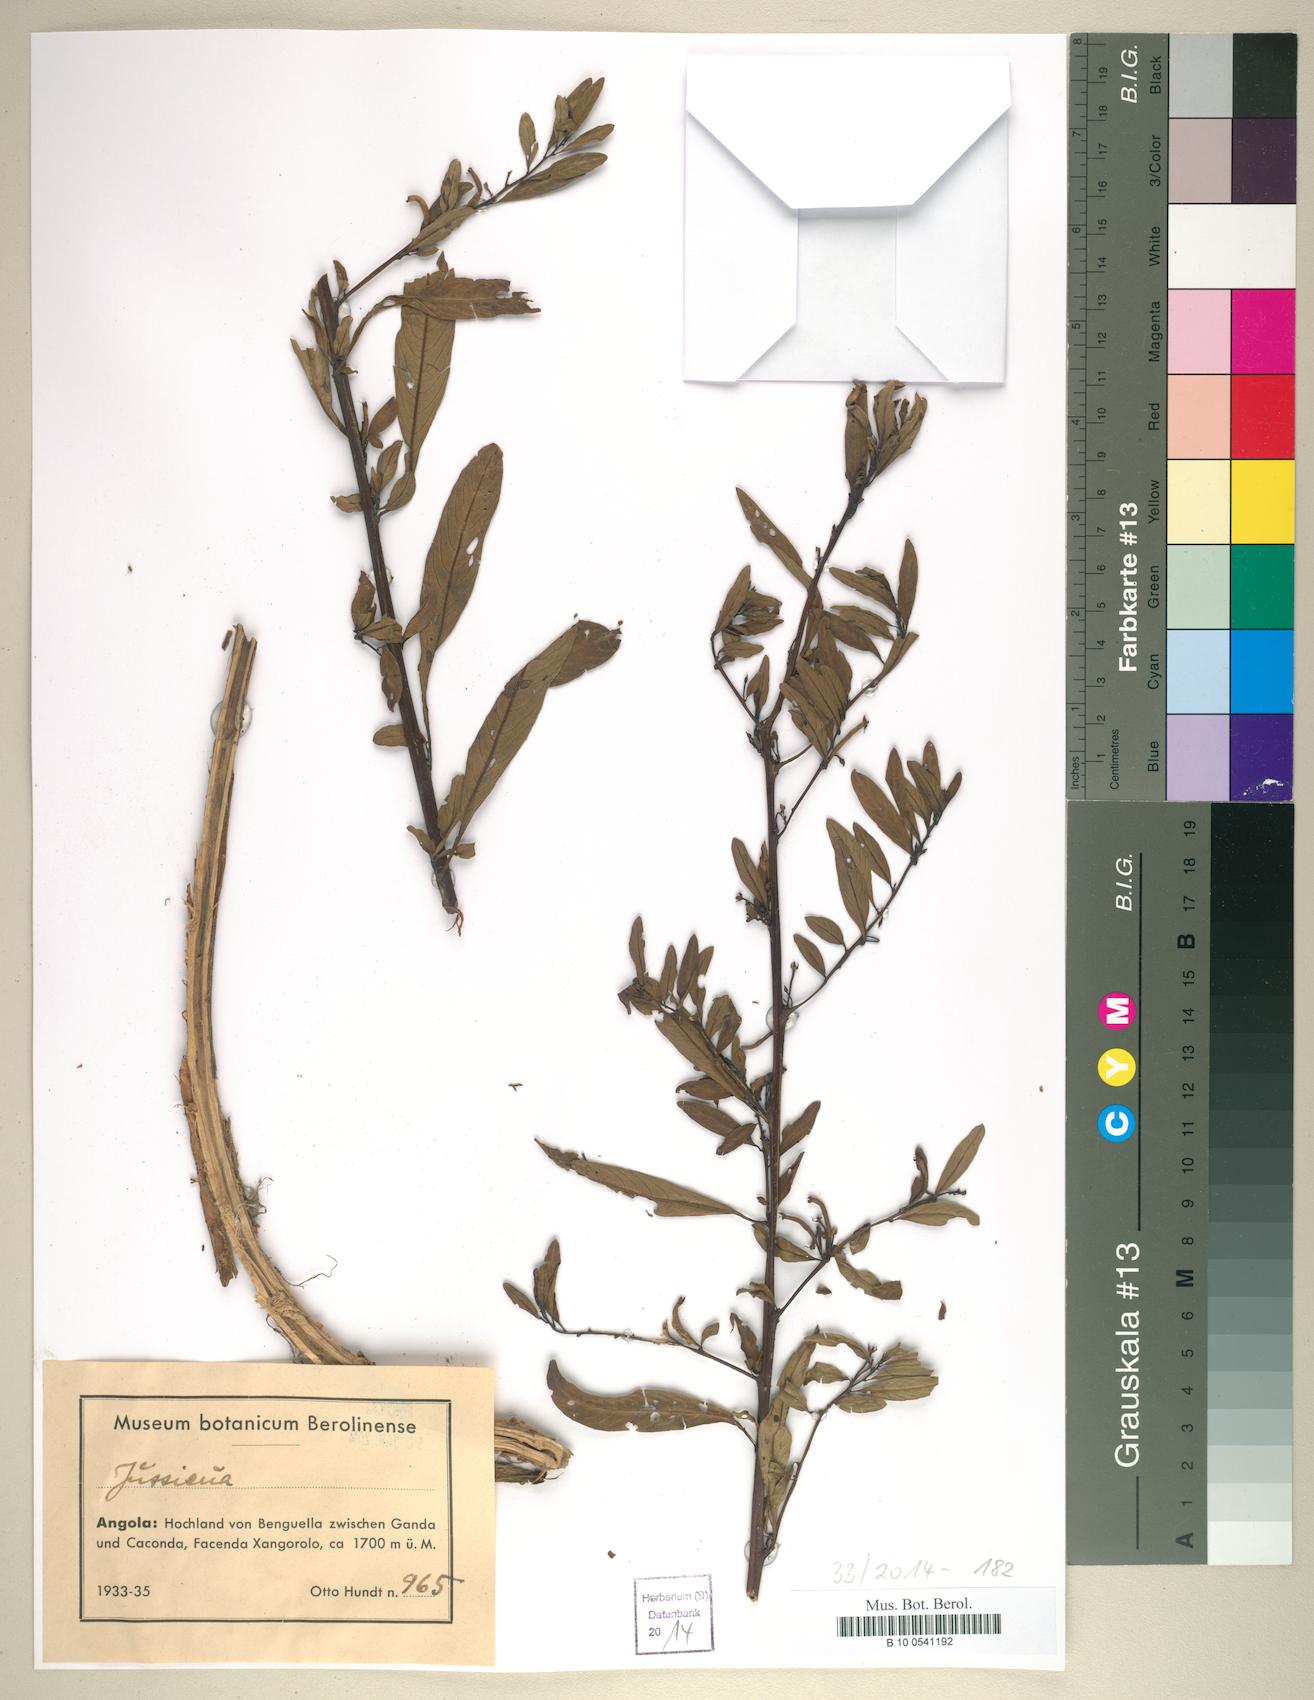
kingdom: Plantae
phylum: Tracheophyta
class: Magnoliopsida
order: Myrtales
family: Onagraceae
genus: Ludwigia
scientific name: Ludwigia
